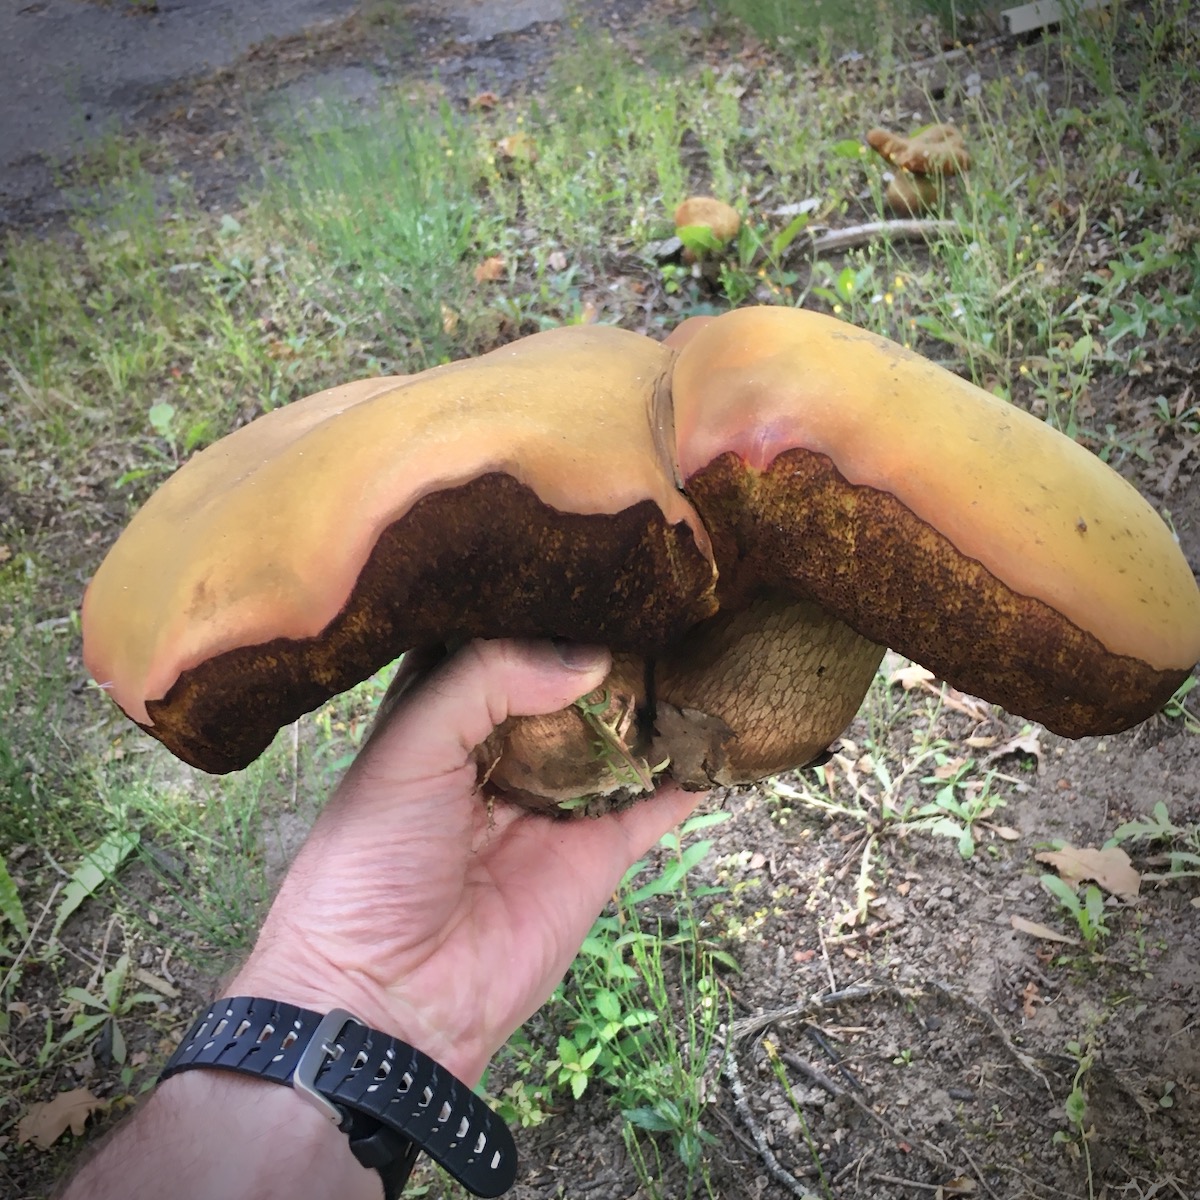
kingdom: Fungi
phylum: Basidiomycota
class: Agaricomycetes
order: Boletales
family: Boletaceae
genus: Suillellus
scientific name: Suillellus luridus
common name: netstokket indigorørhat
